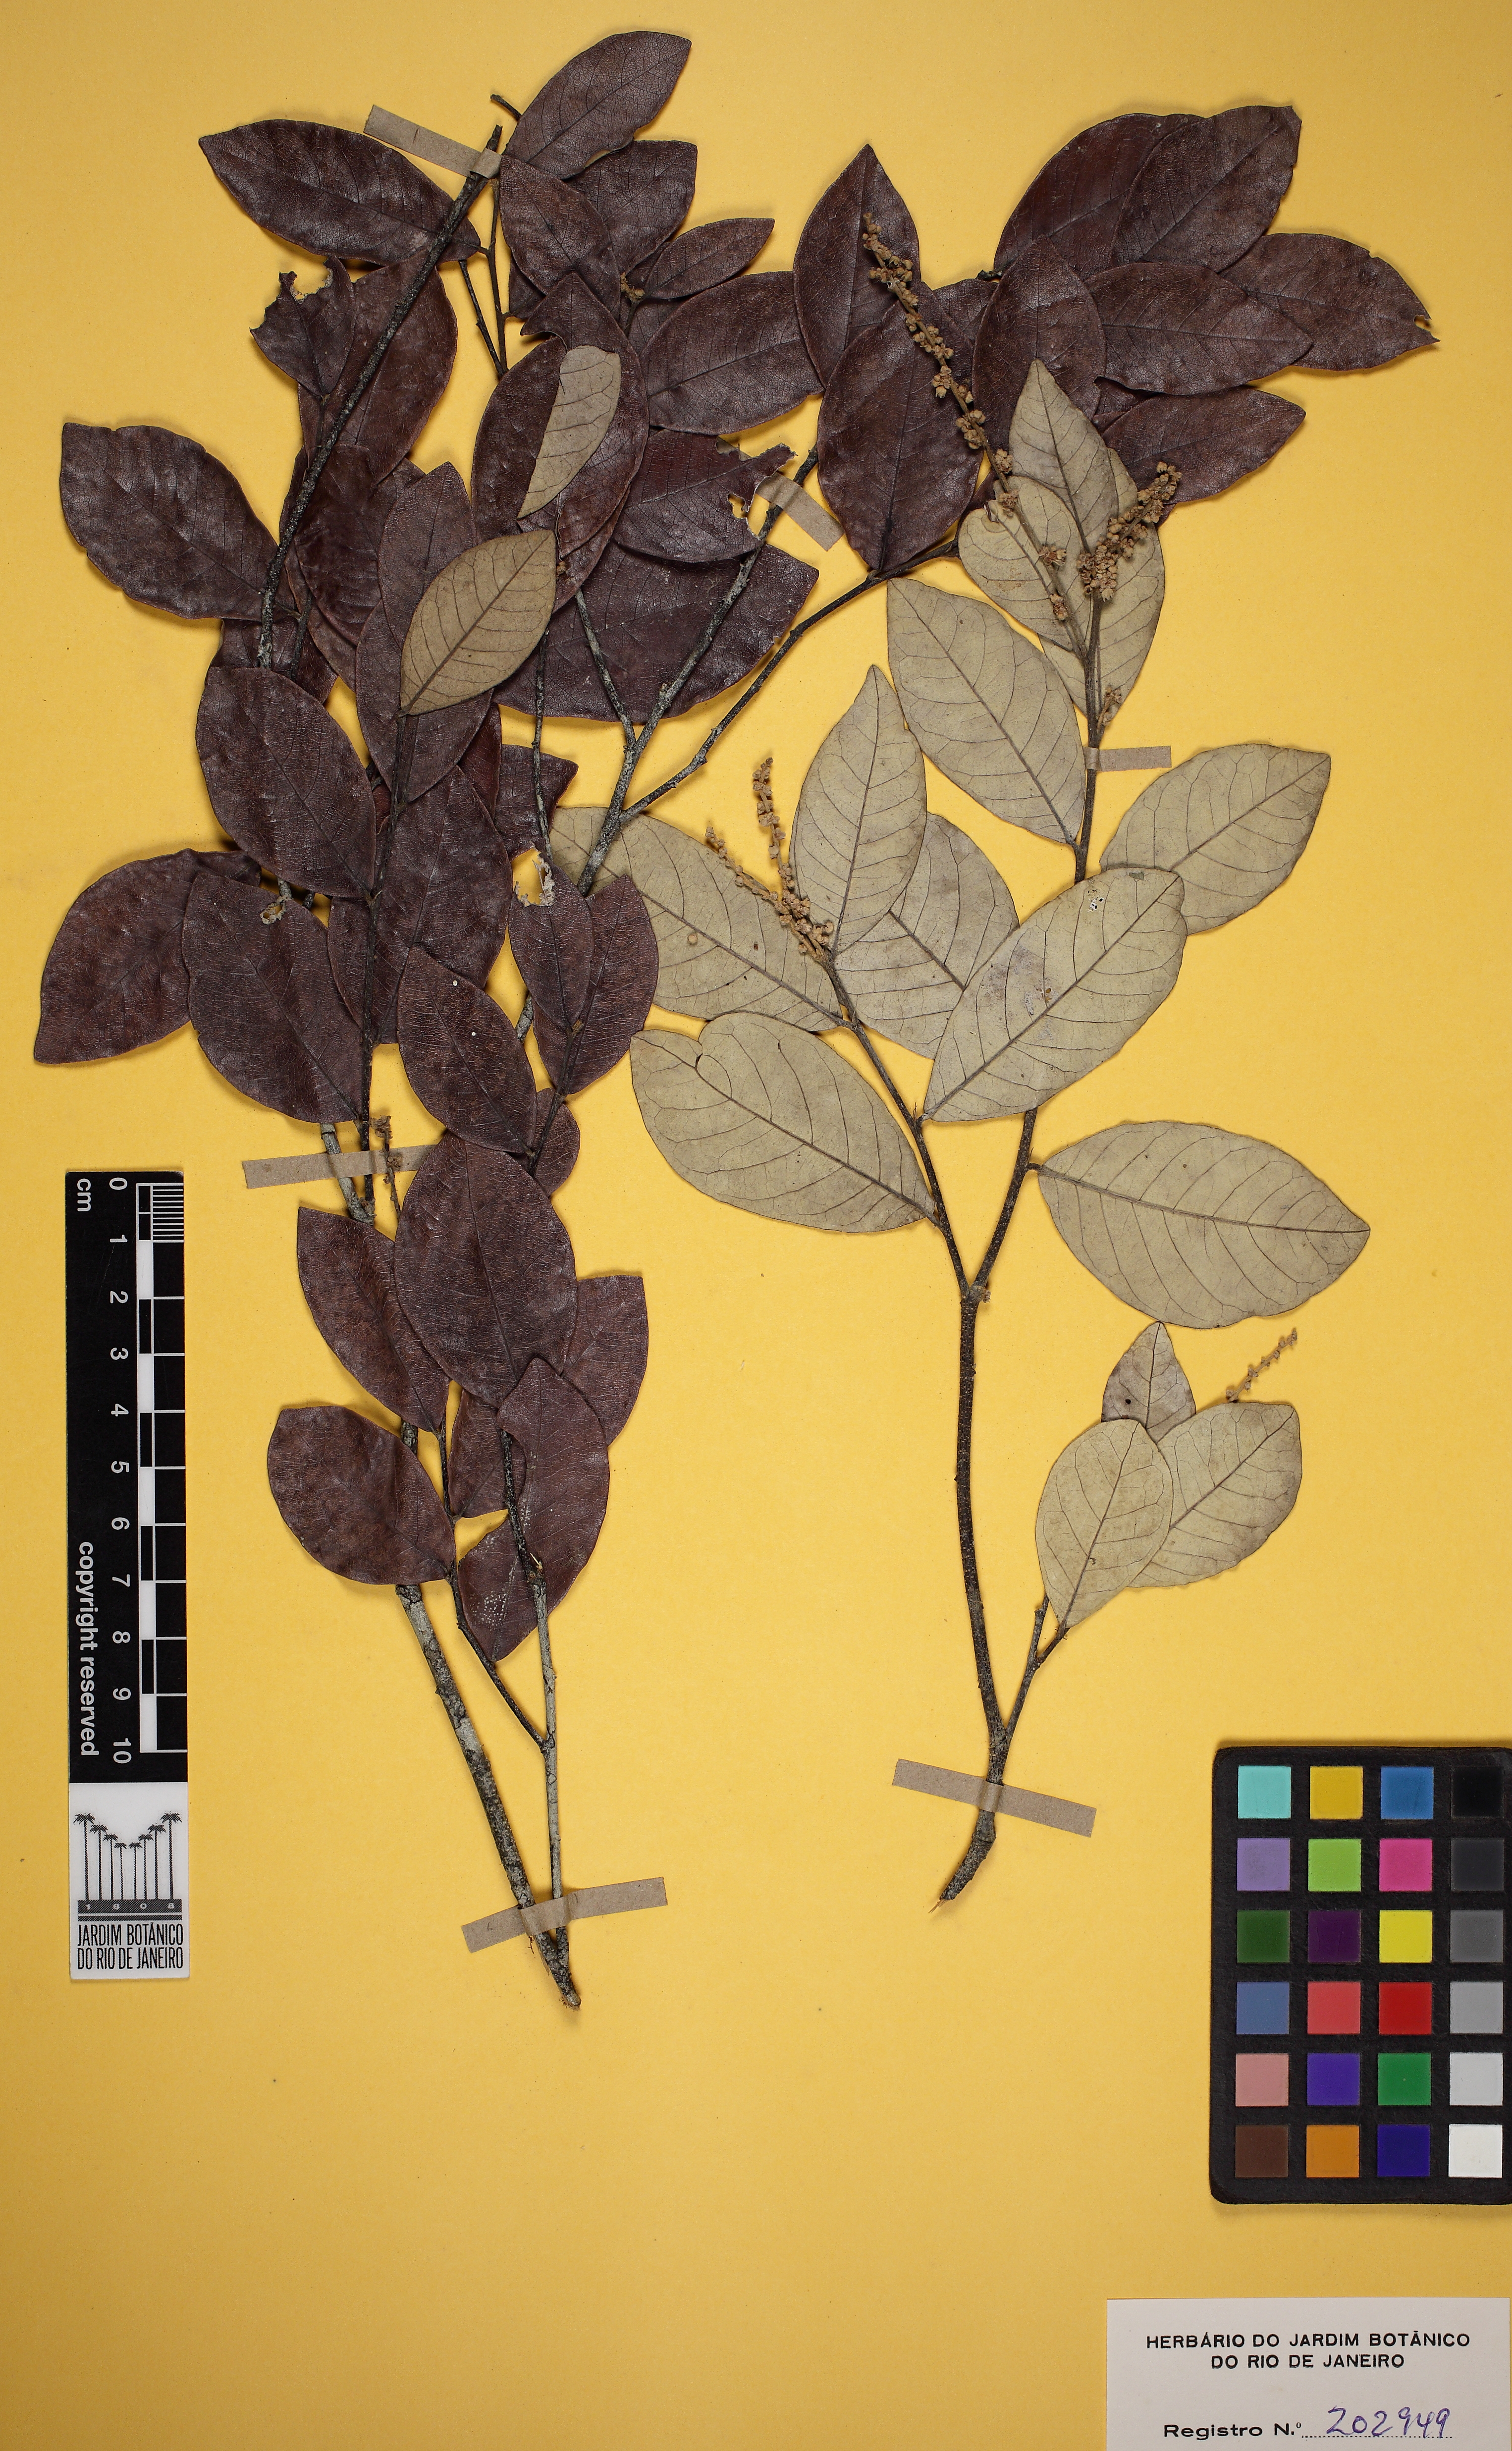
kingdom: Plantae
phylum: Tracheophyta
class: Magnoliopsida
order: Malpighiales
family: Chrysobalanaceae
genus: Licania
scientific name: Licania leptostachya
